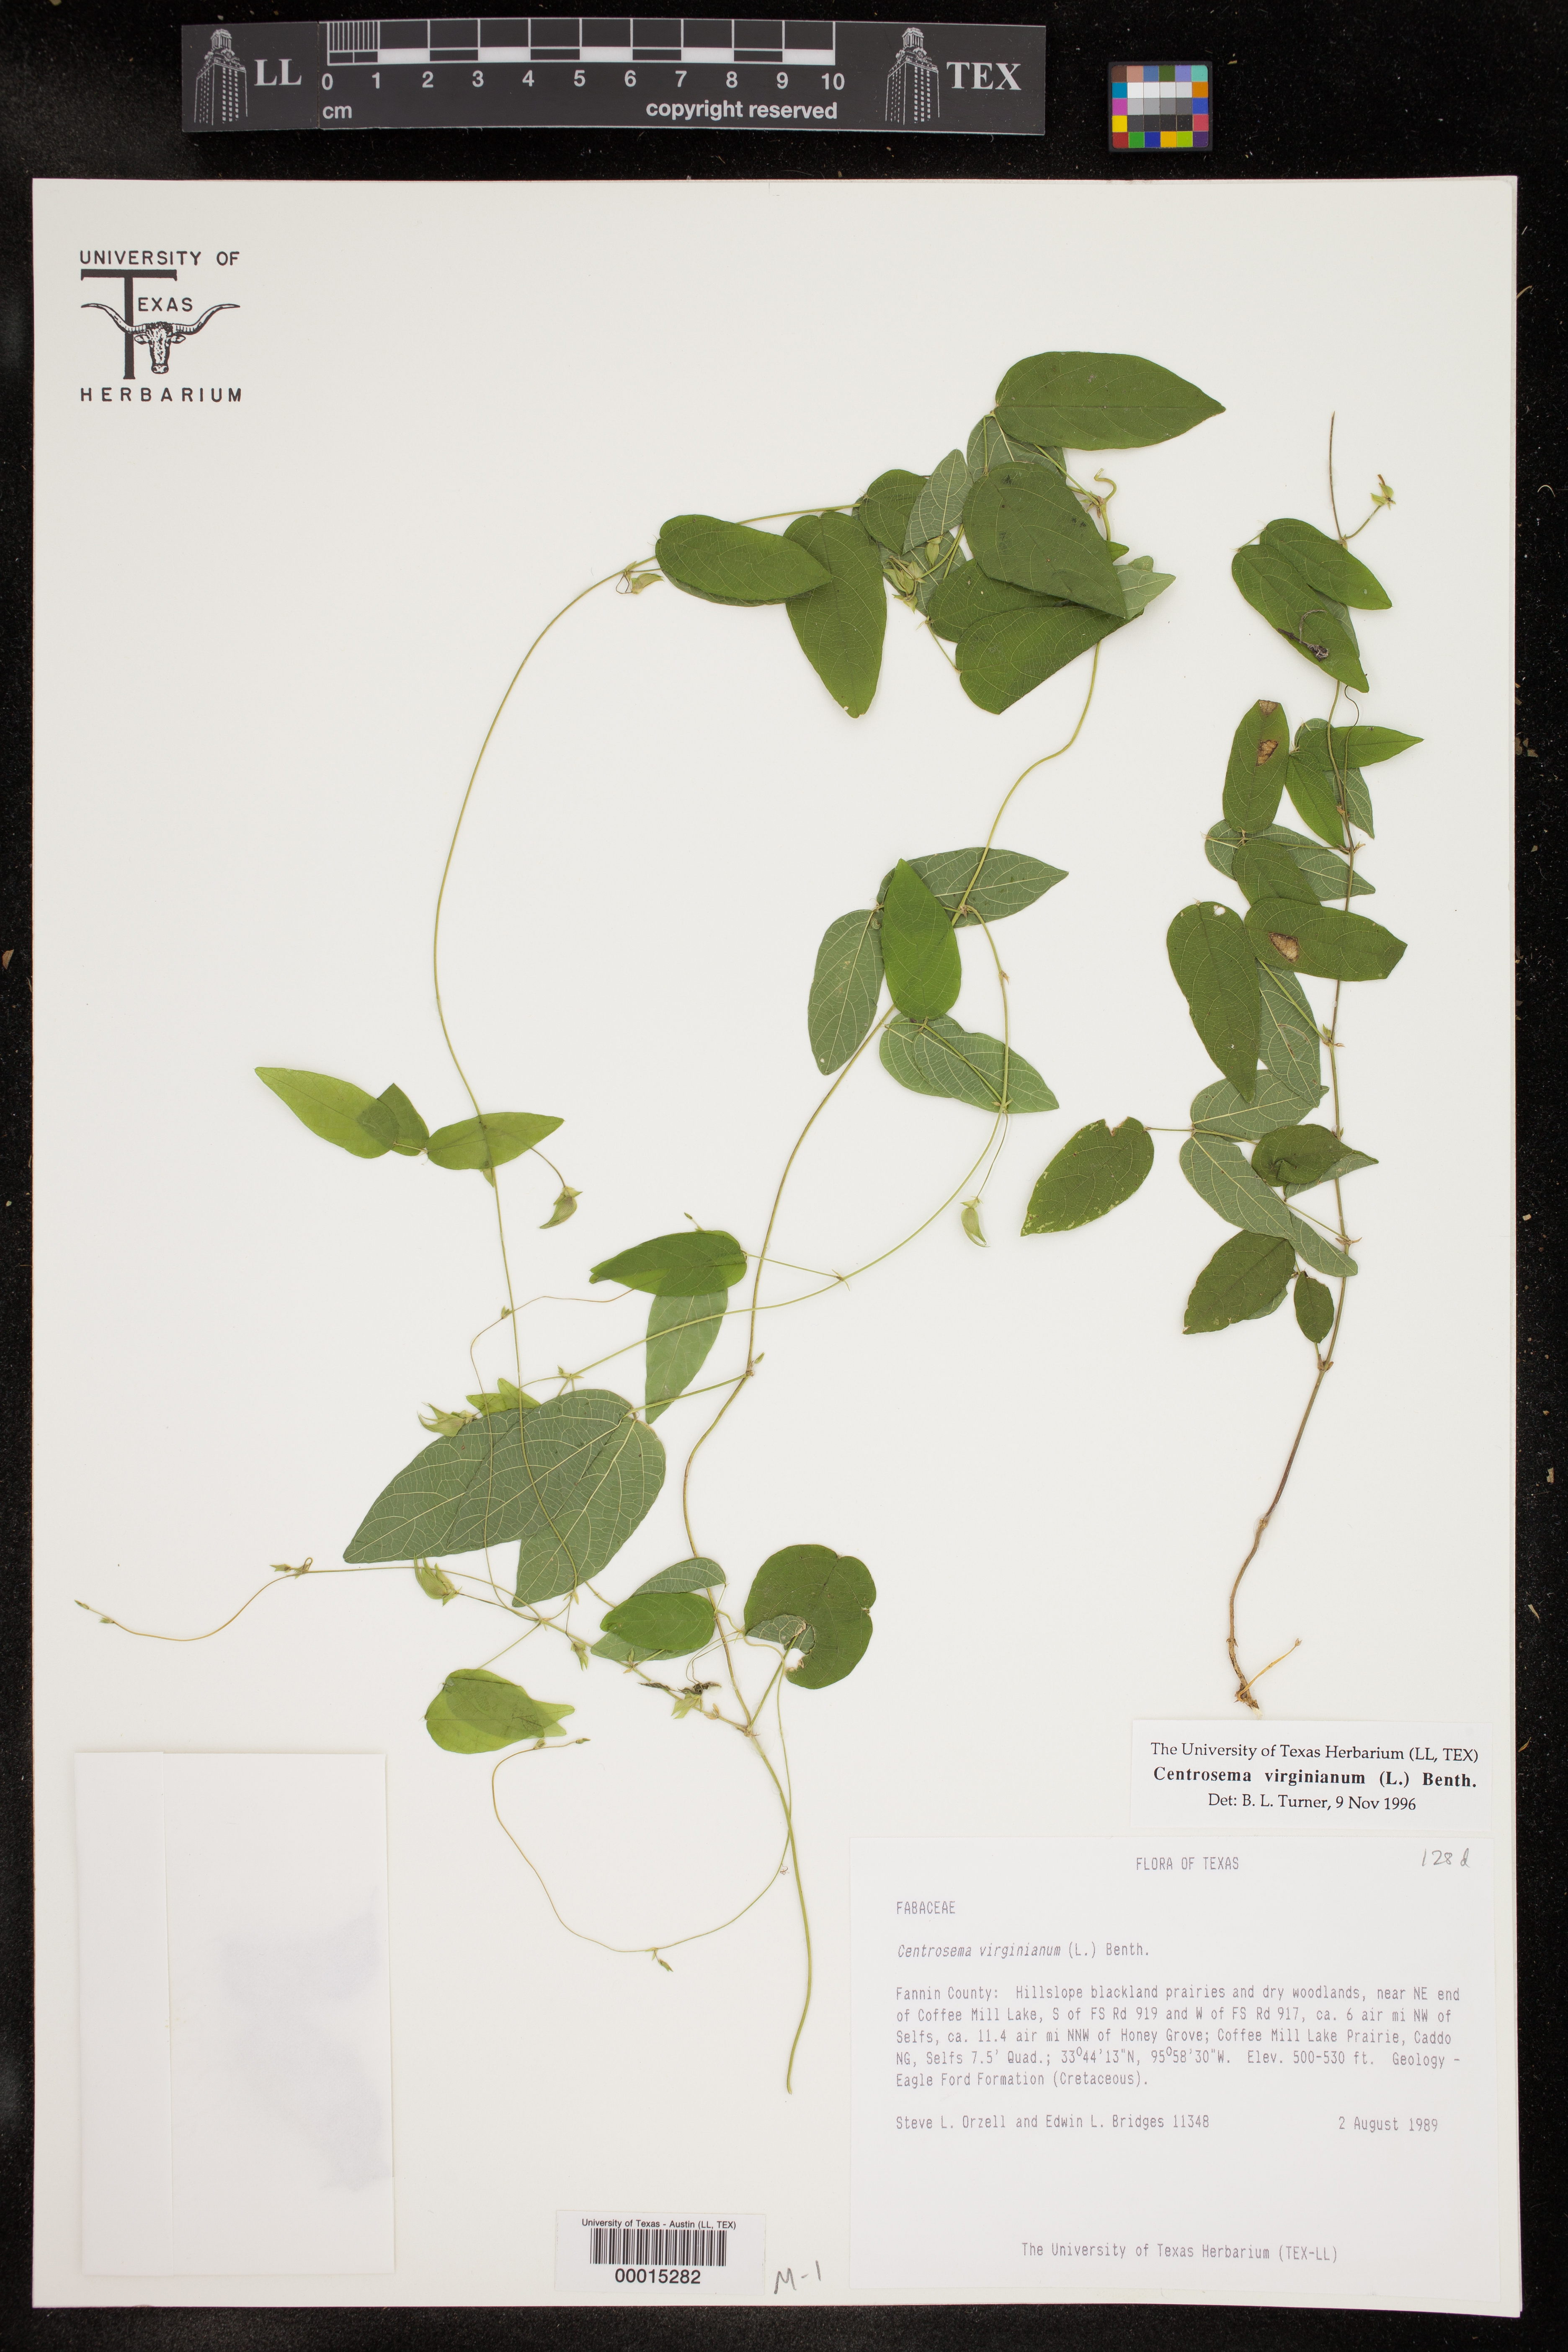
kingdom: Plantae
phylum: Tracheophyta
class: Magnoliopsida
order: Fabales
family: Fabaceae
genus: Centrosema
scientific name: Centrosema virginianum
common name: Butterfly-pea
